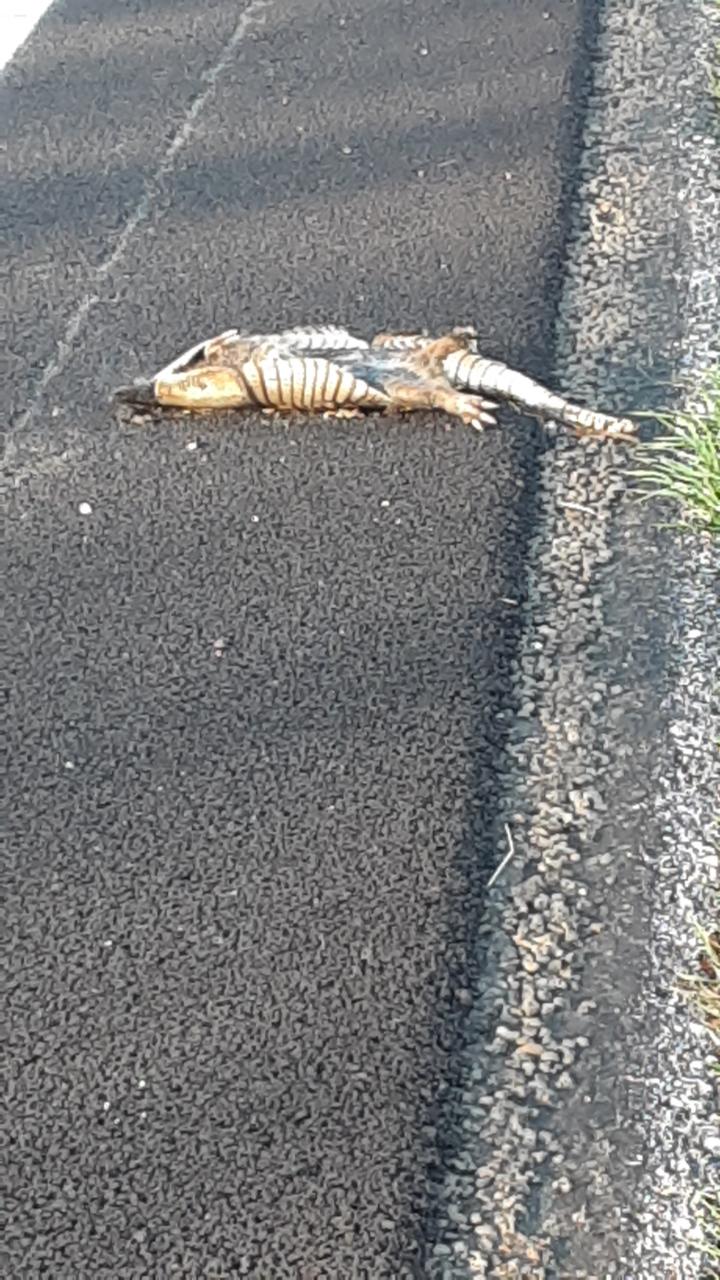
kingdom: Animalia
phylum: Chordata
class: Mammalia
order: Cingulata
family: Dasypodidae
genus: Dasypus
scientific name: Dasypus novemcinctus
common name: Nine-banded armadillo
